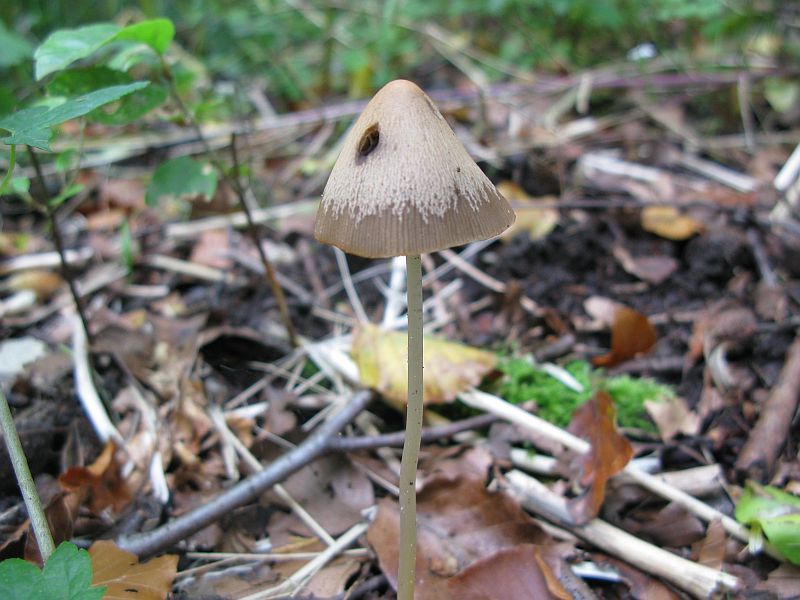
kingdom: Fungi
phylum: Basidiomycota
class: Agaricomycetes
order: Agaricales
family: Psathyrellaceae
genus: Parasola
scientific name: Parasola conopilea
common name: kegle-hjulhat
